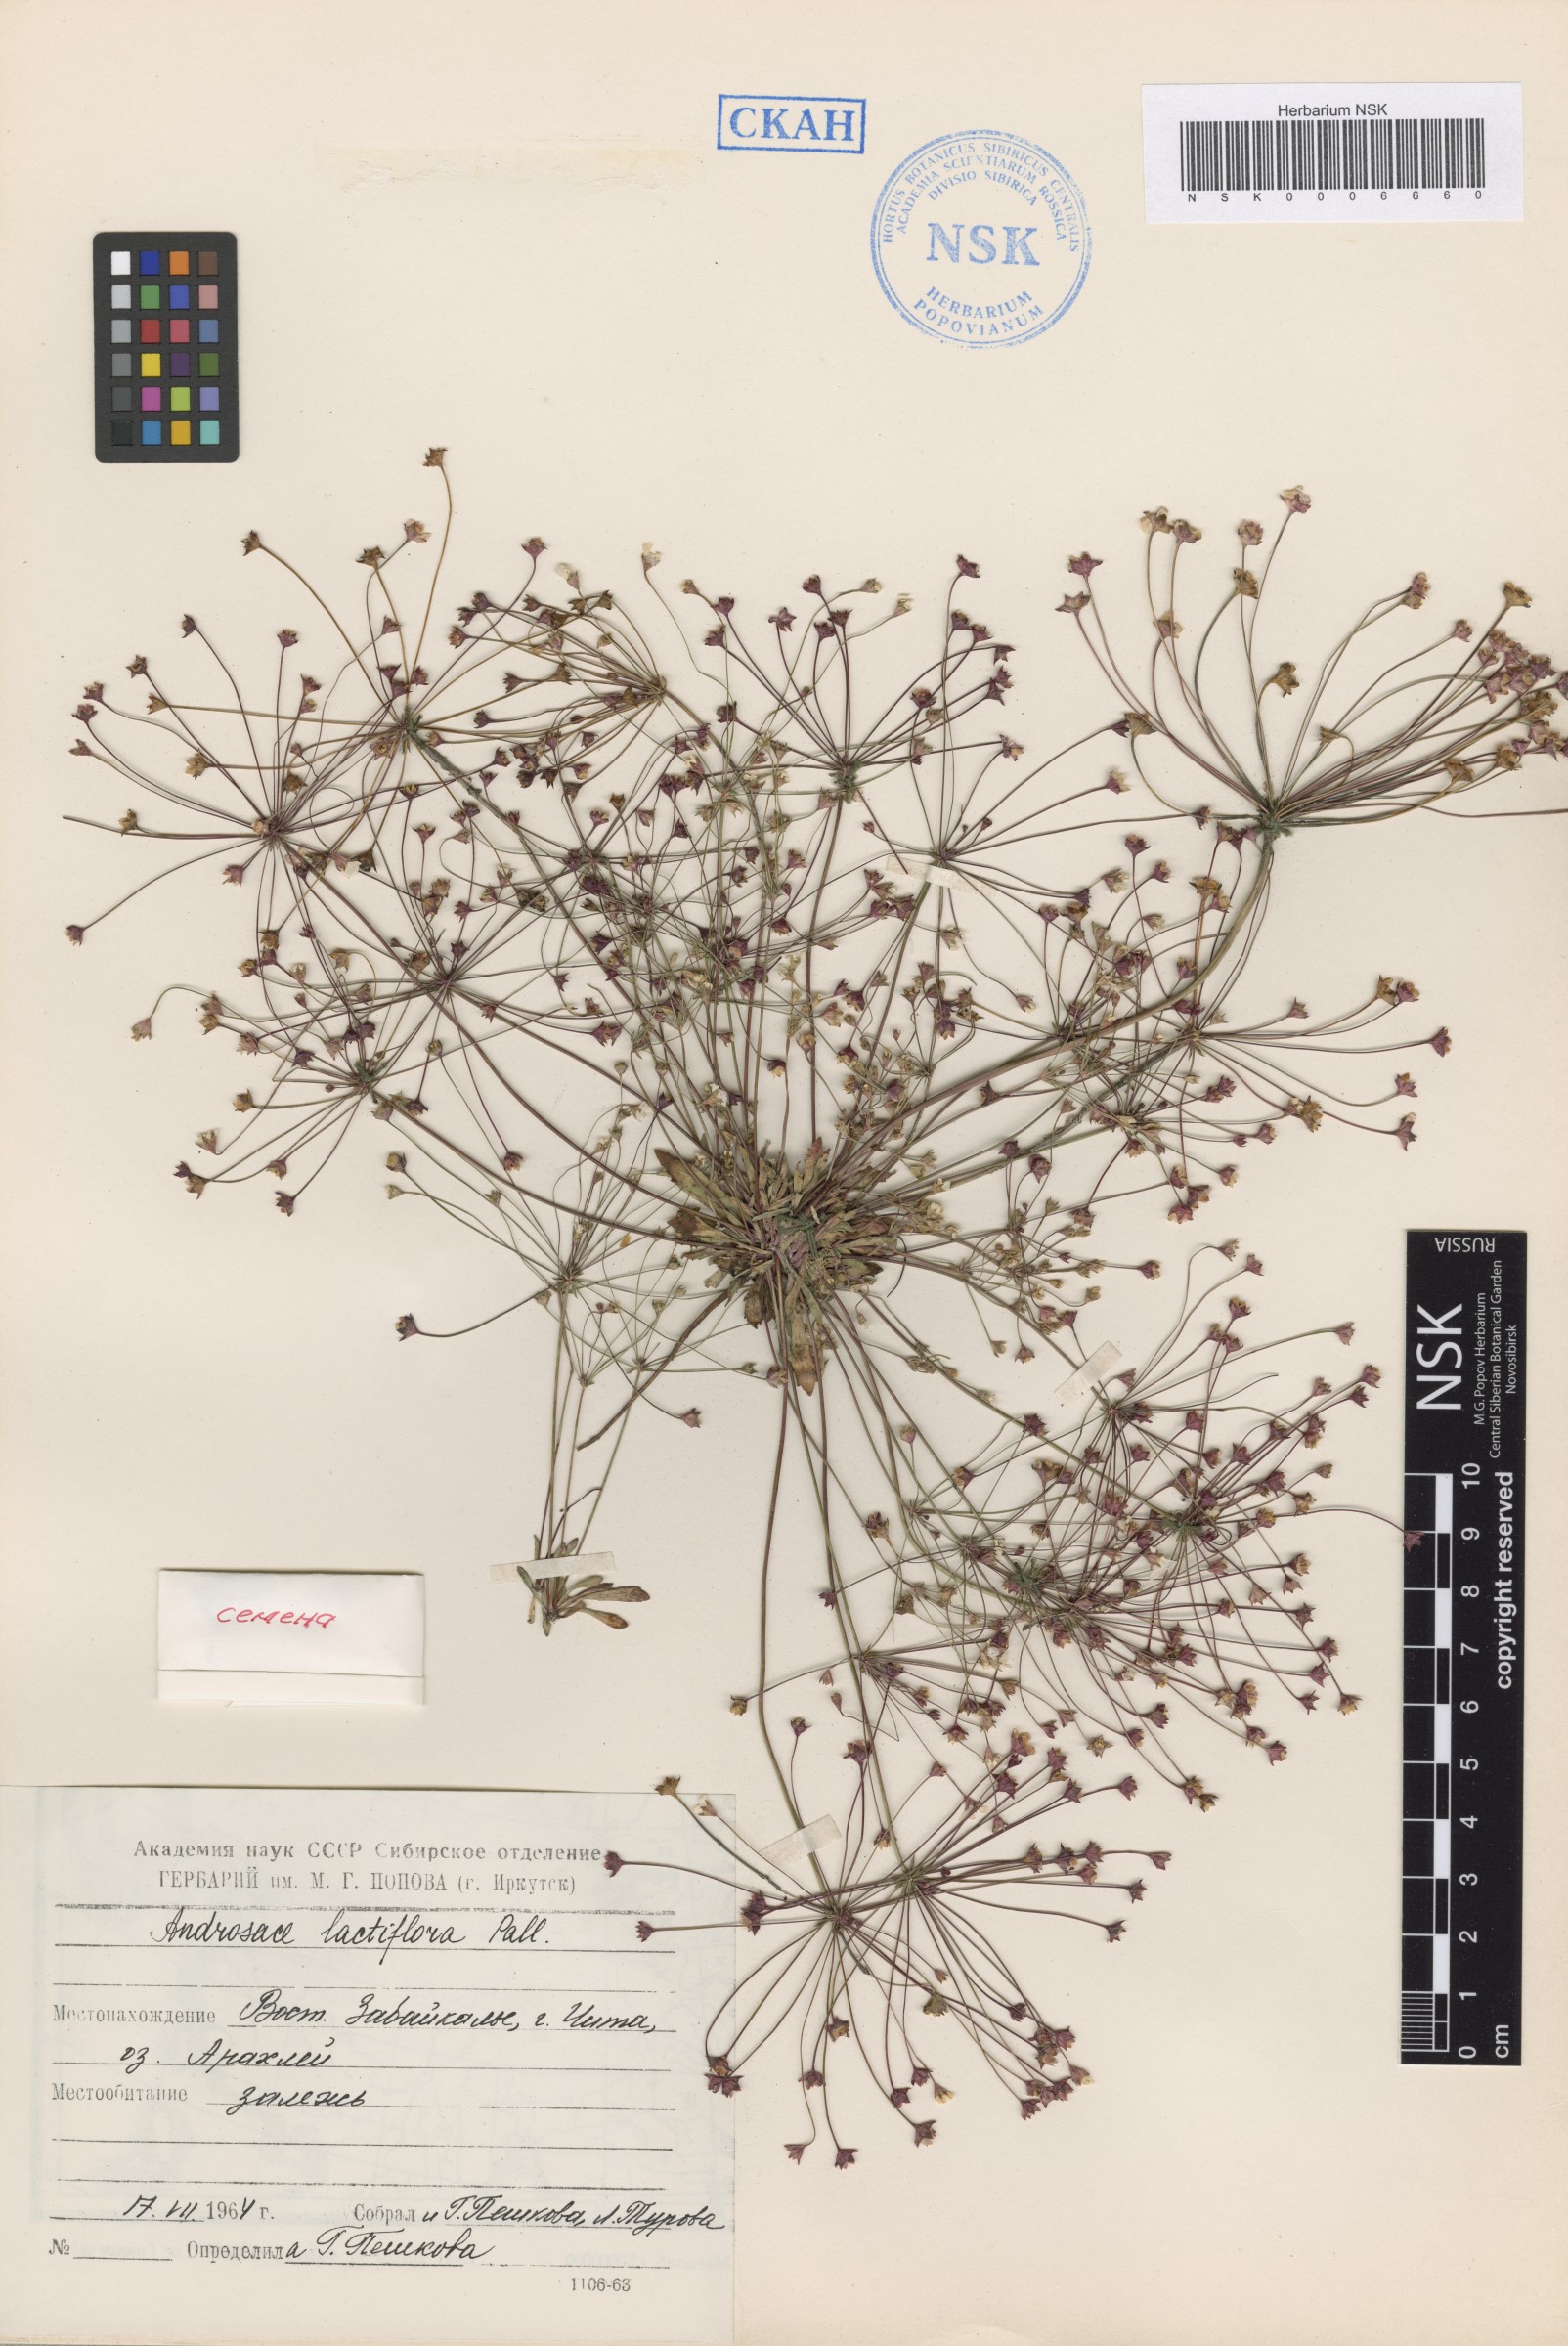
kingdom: Plantae
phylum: Tracheophyta
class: Magnoliopsida
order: Ericales
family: Primulaceae
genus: Androsace
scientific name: Androsace lactiflora
